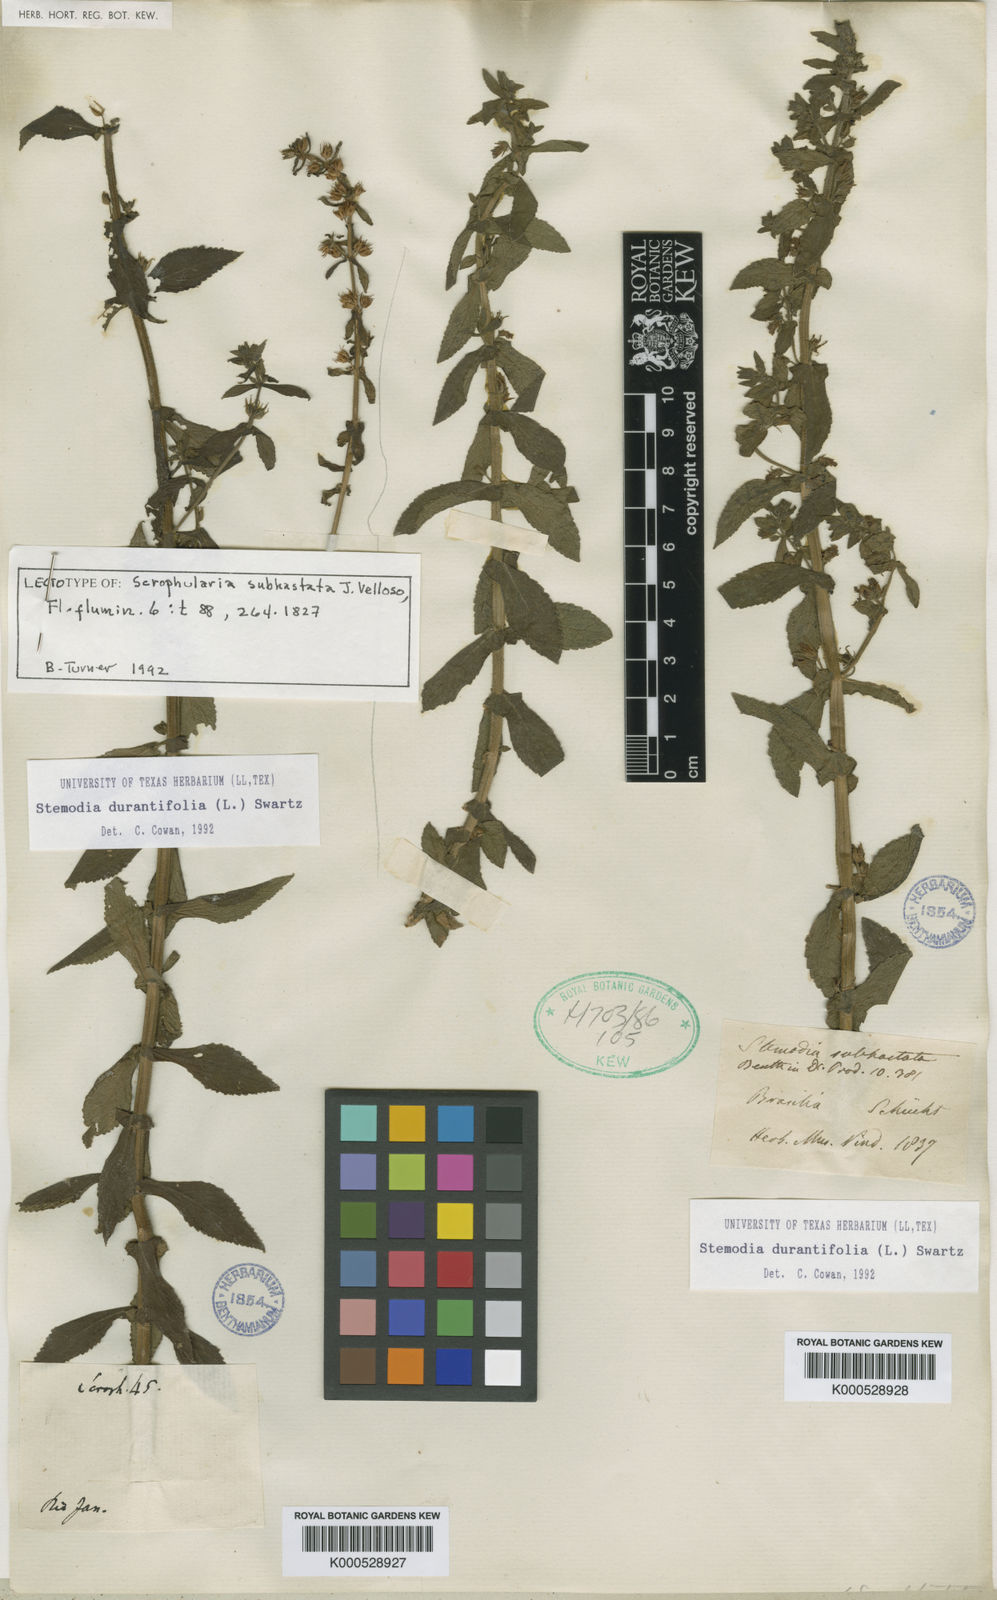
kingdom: Plantae
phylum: Tracheophyta
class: Magnoliopsida
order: Lamiales
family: Plantaginaceae
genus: Stemodia
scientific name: Stemodia durantifolia
